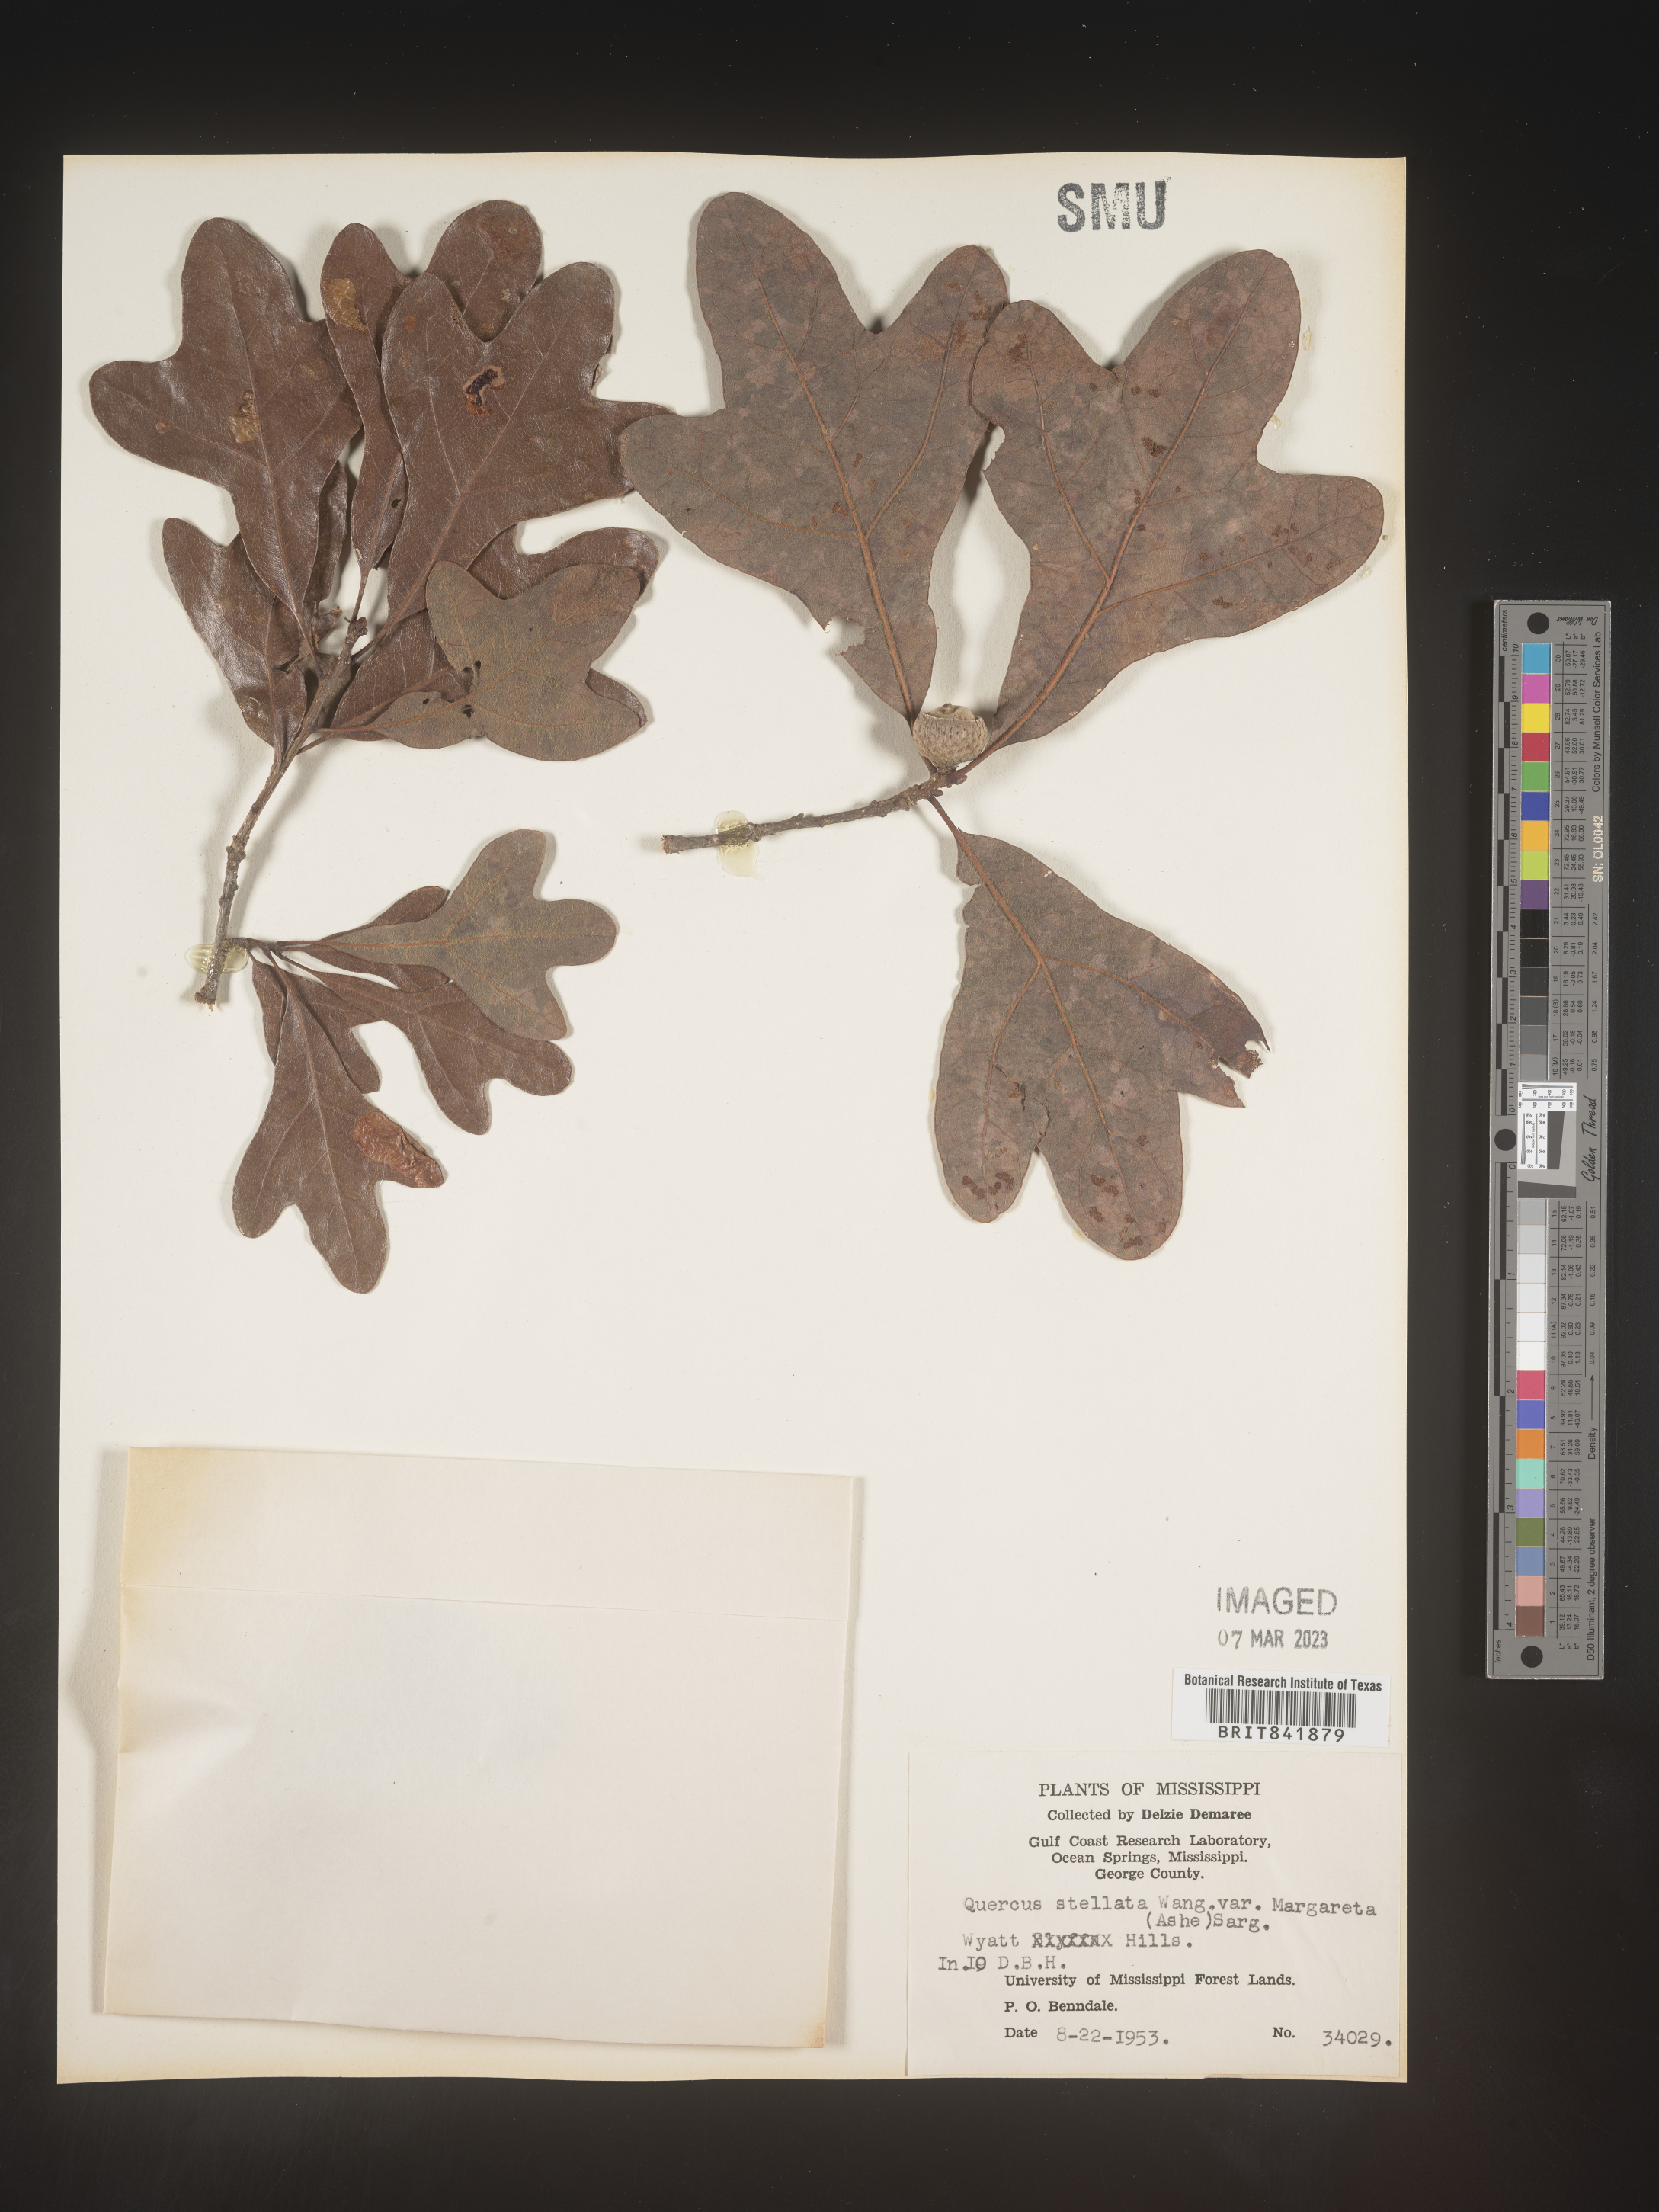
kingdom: Plantae
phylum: Tracheophyta
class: Magnoliopsida
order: Fagales
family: Fagaceae
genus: Quercus
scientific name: Quercus stellata
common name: Post oak
